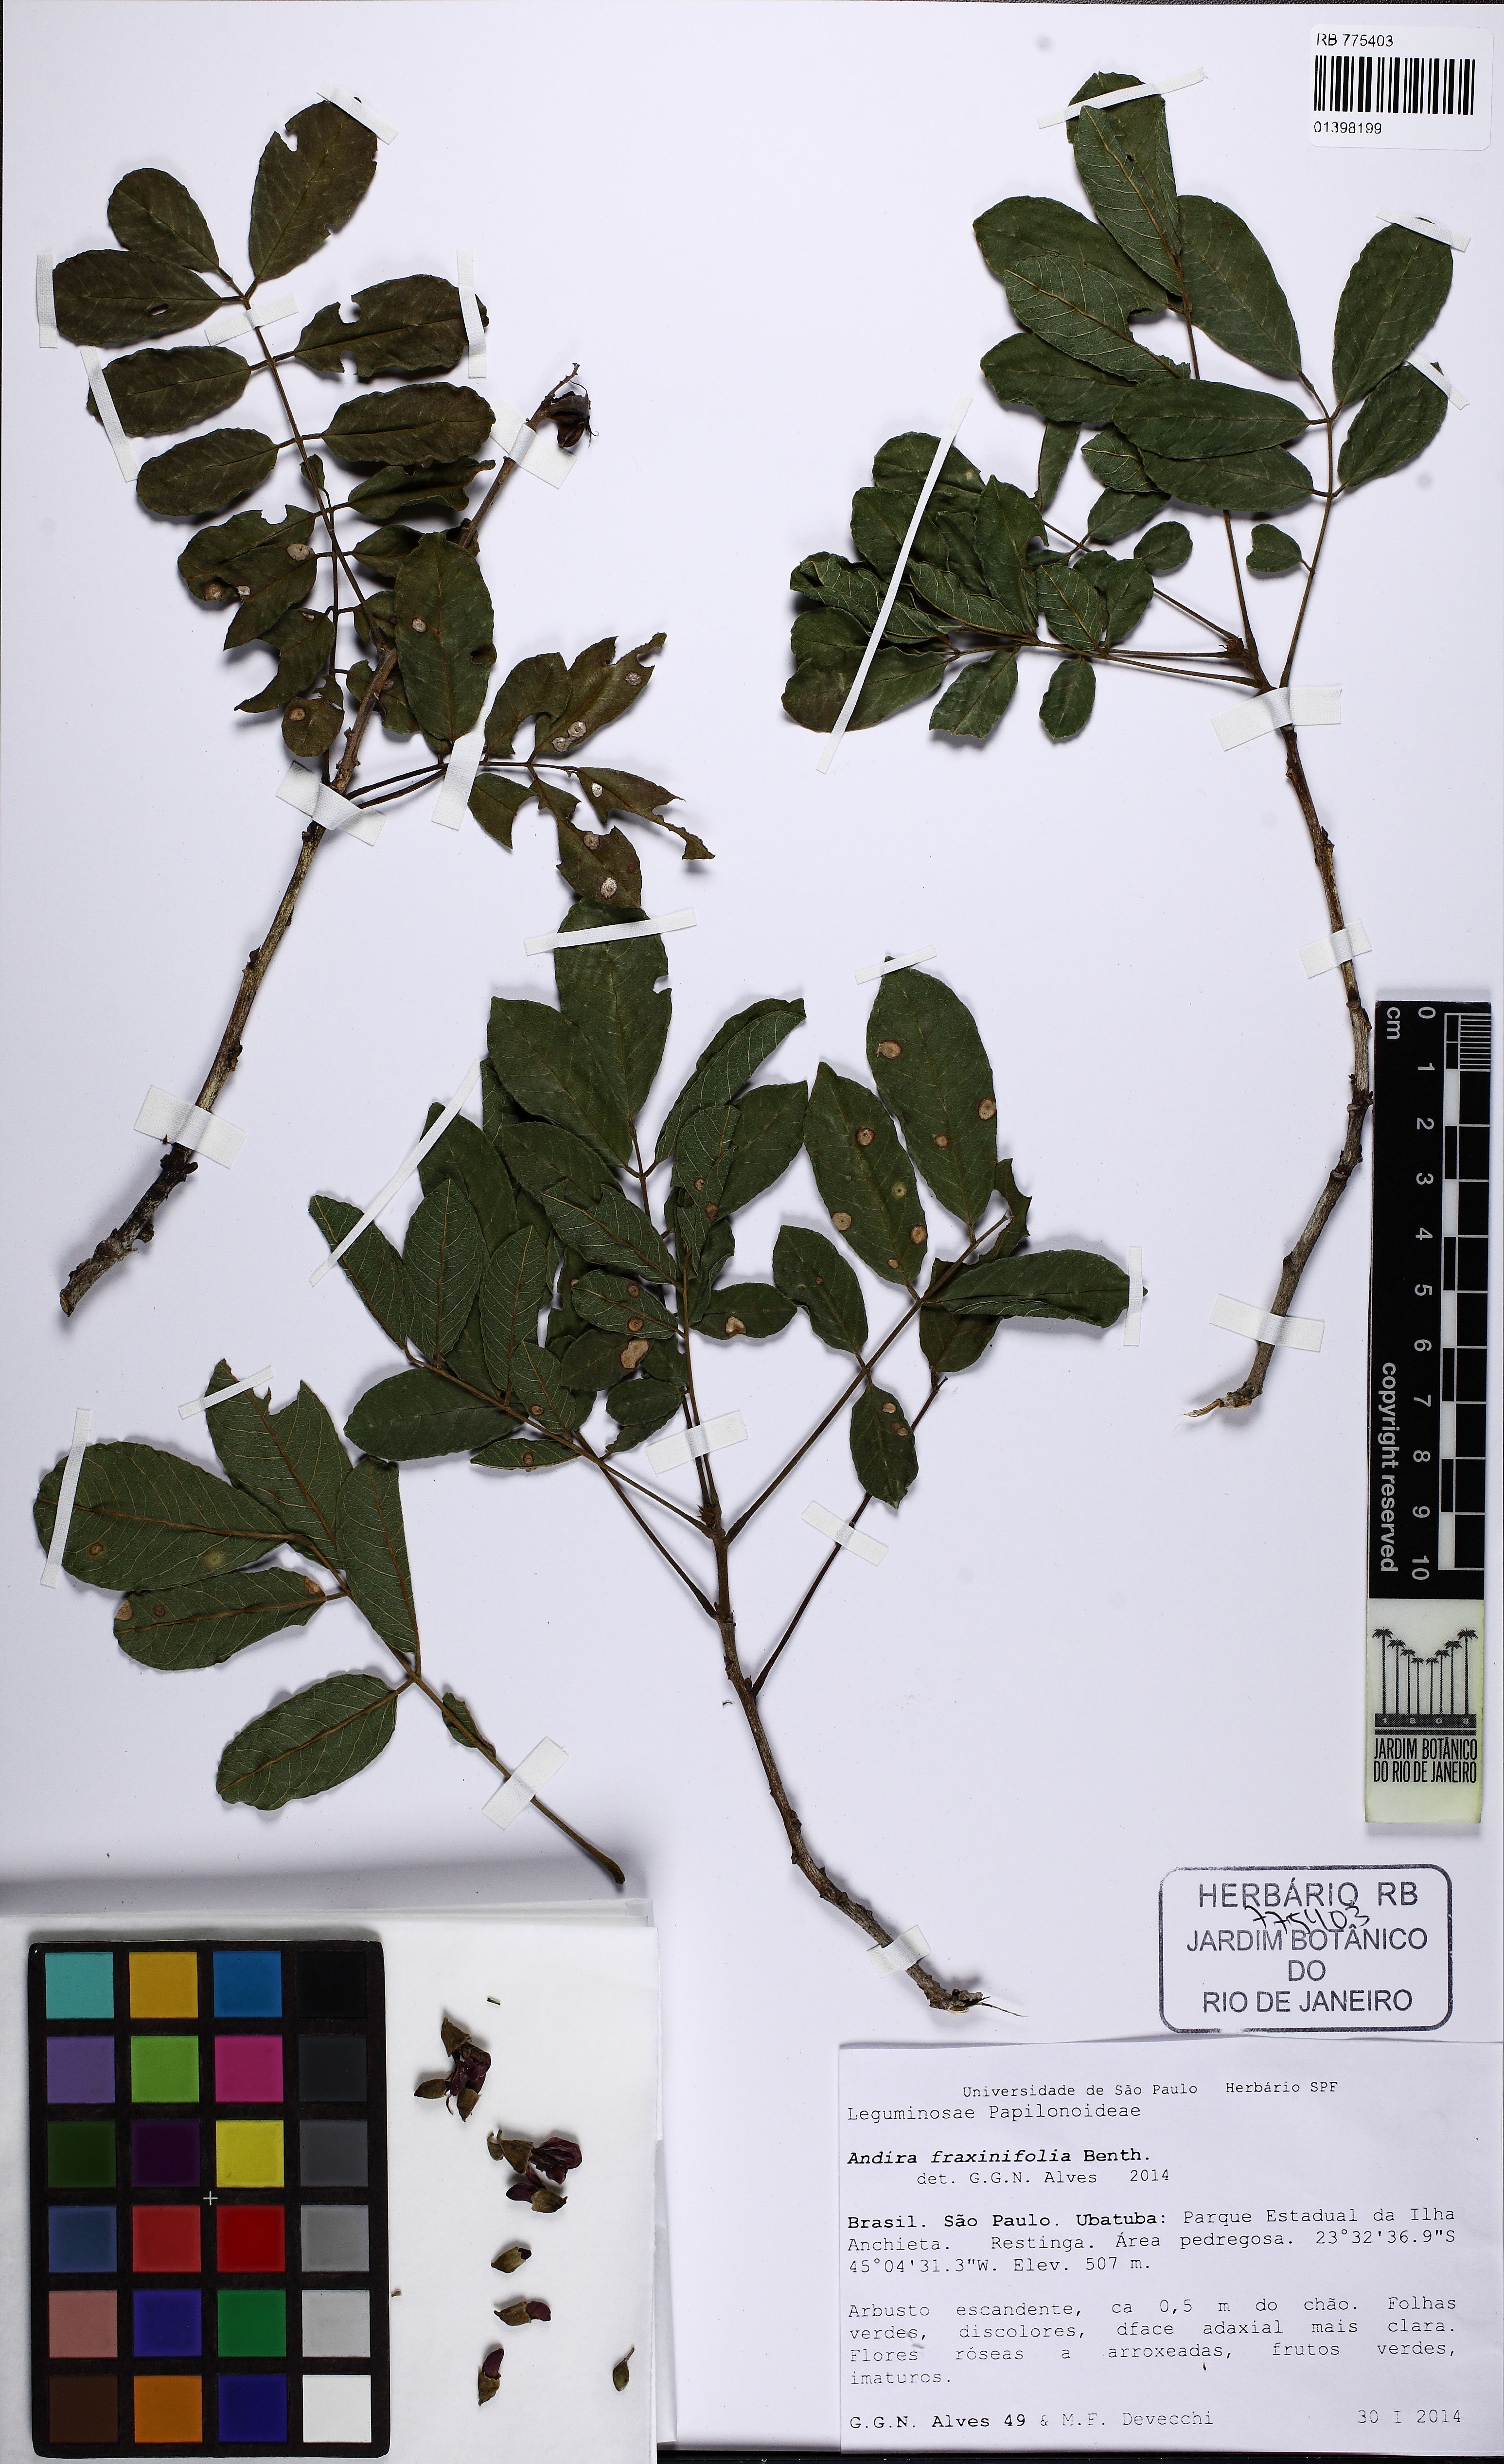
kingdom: Plantae
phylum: Tracheophyta
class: Magnoliopsida
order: Fabales
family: Fabaceae
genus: Andira
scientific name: Andira fraxinifolia
